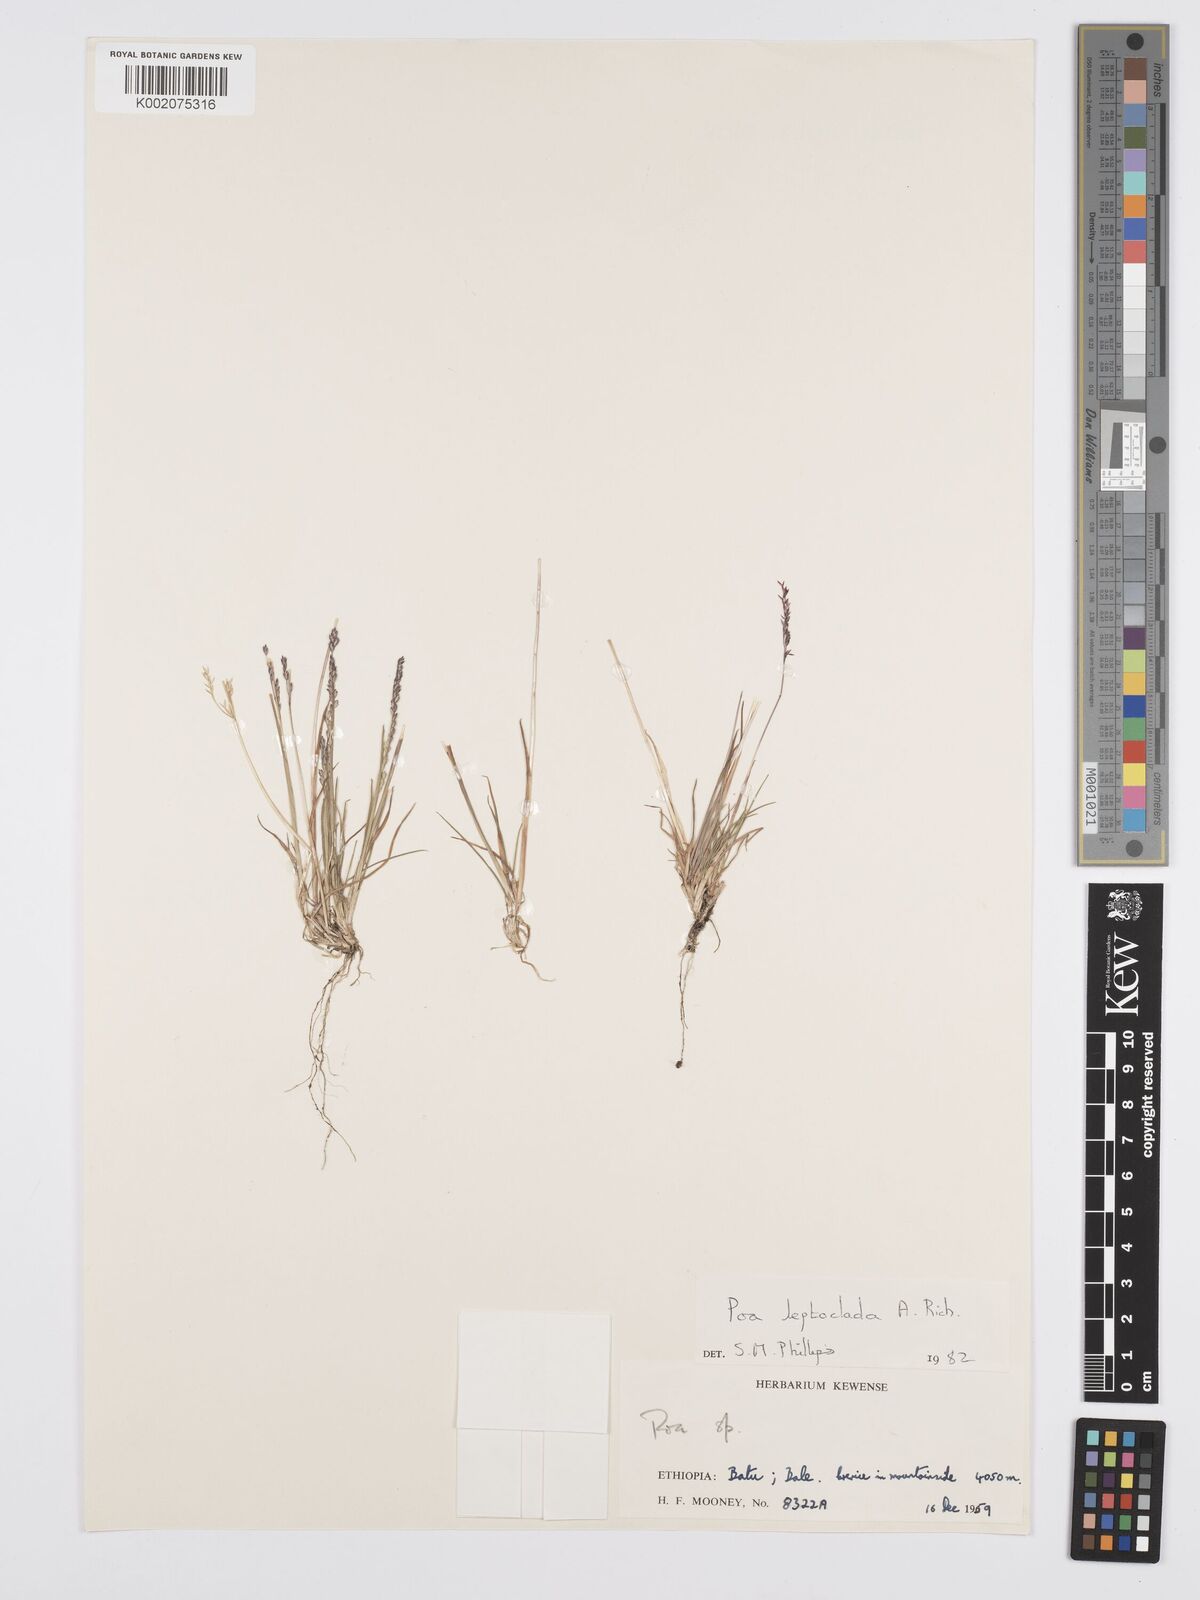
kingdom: Plantae
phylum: Tracheophyta
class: Liliopsida
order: Poales
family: Poaceae
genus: Poa
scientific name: Poa leptoclada
